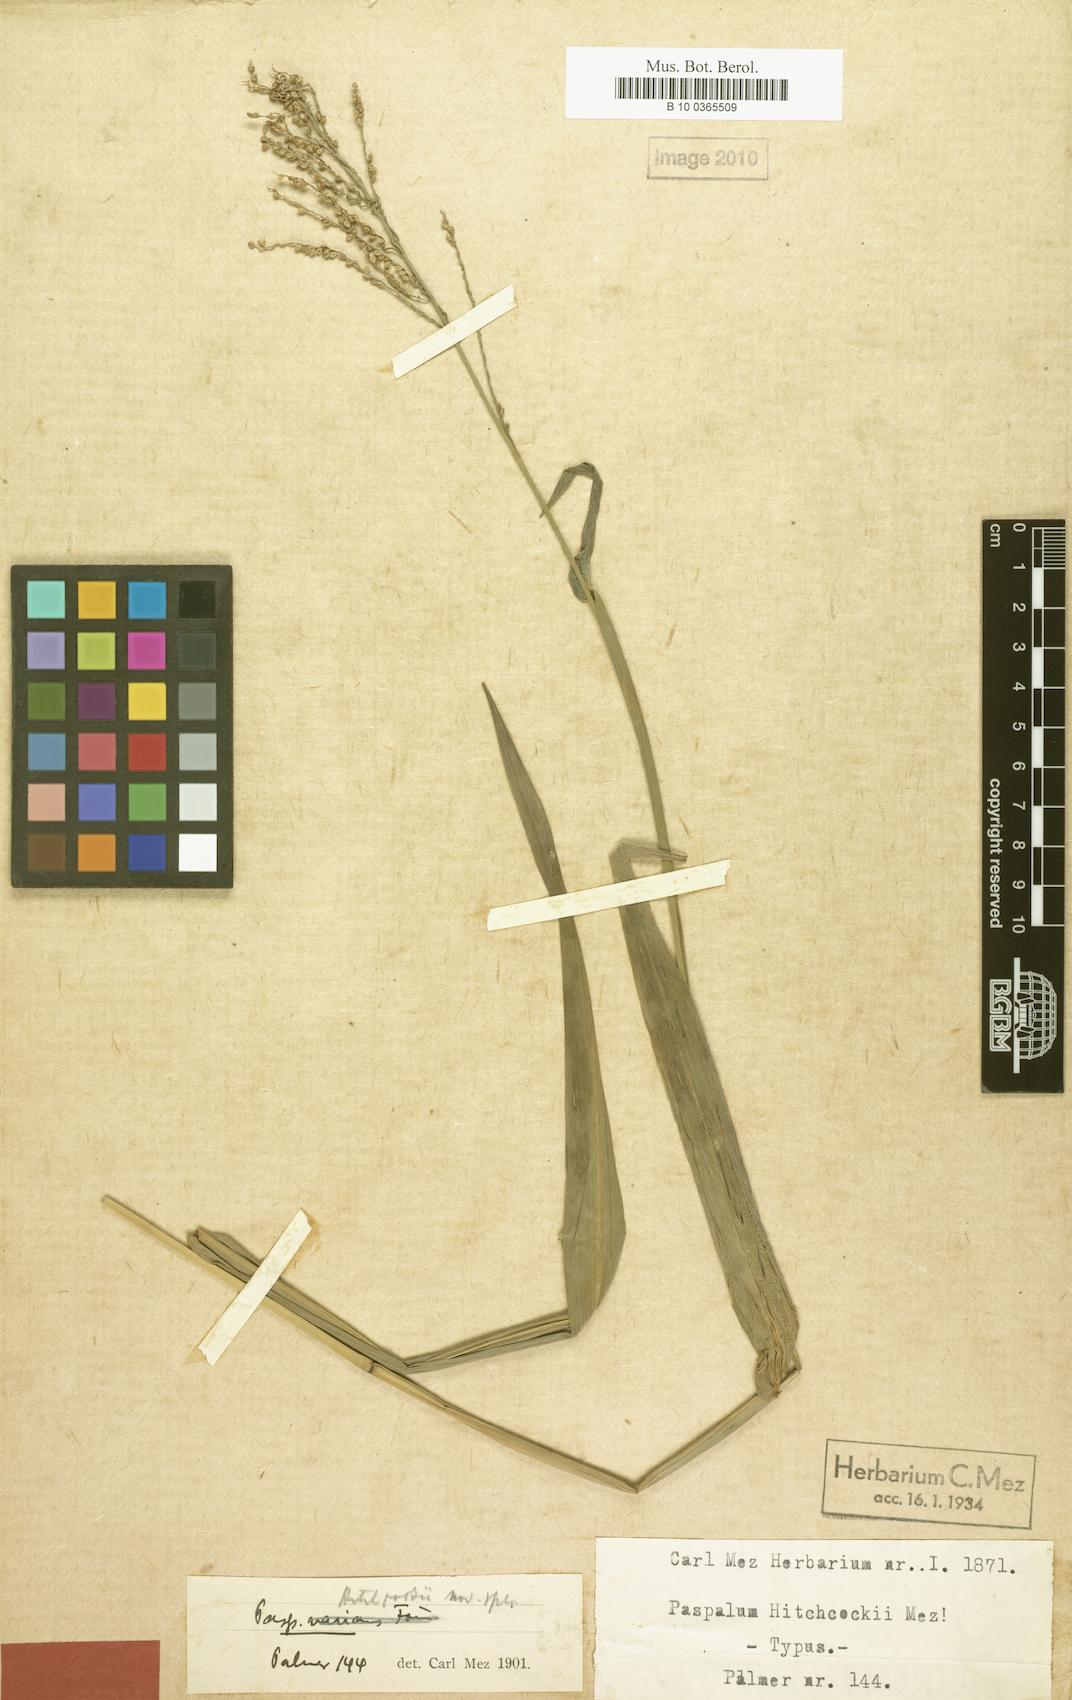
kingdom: Plantae
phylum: Tracheophyta
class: Liliopsida
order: Poales
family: Poaceae
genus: Paspalum
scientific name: Paspalum hitchcockii
